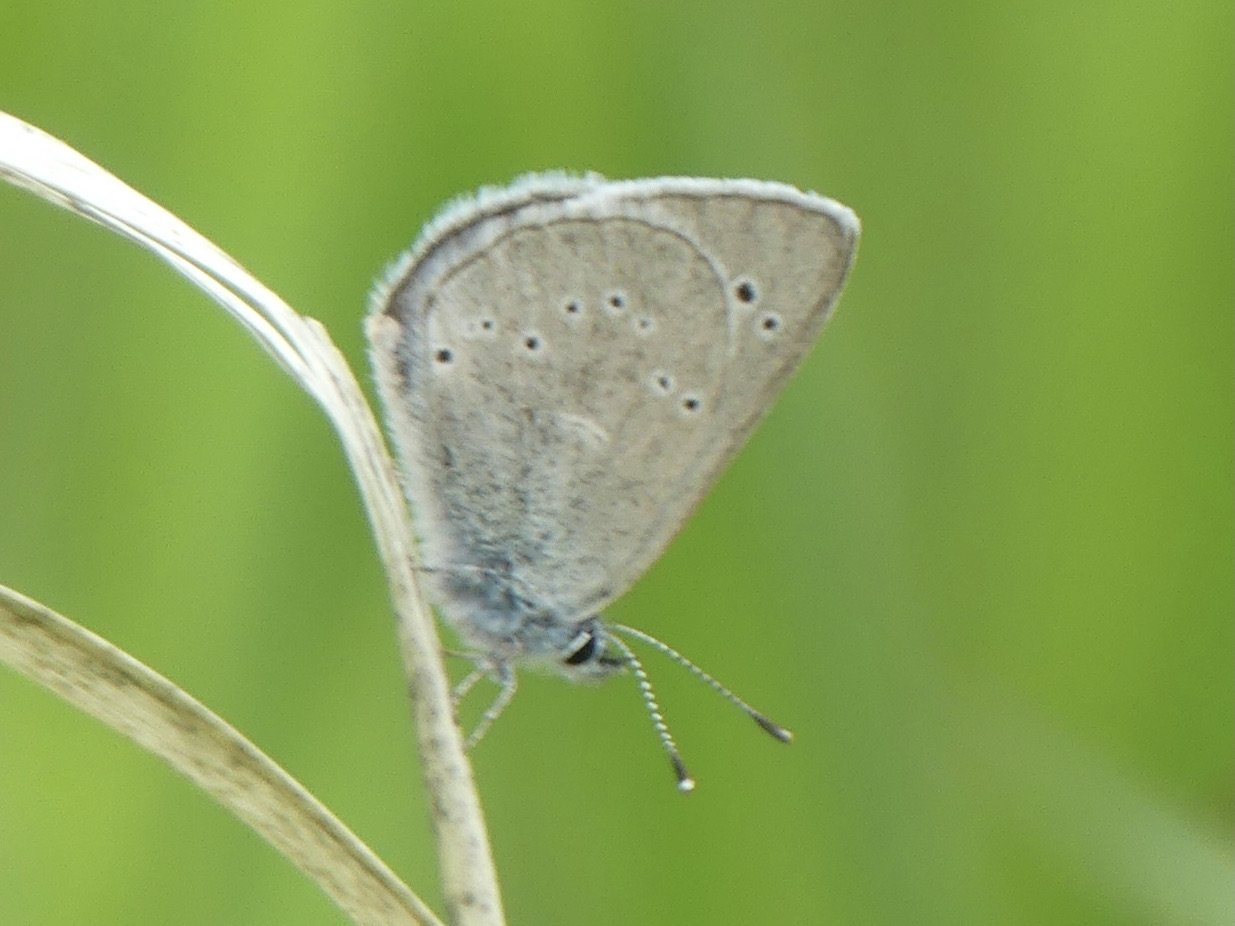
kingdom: Animalia
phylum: Arthropoda
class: Insecta
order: Lepidoptera
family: Lycaenidae
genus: Glaucopsyche
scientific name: Glaucopsyche lygdamus
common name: Silvery Blue
